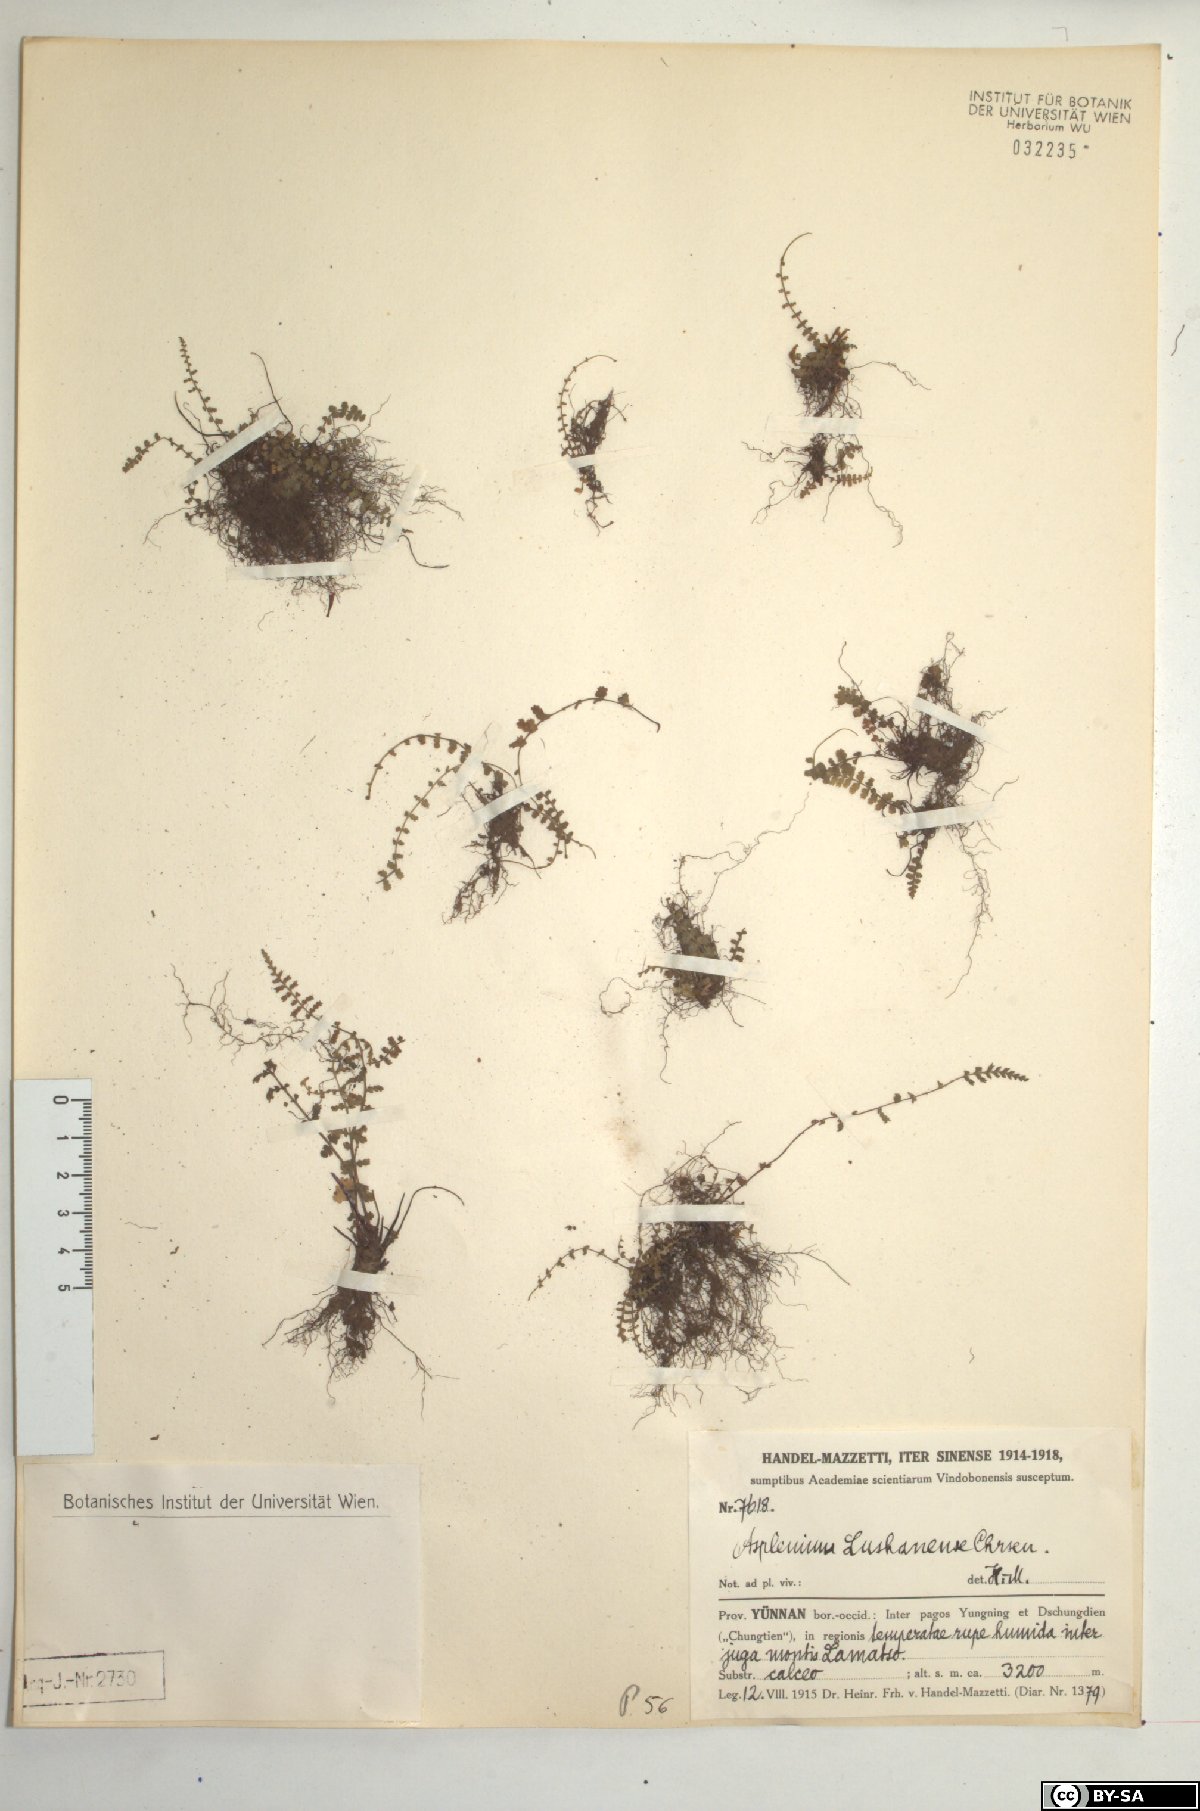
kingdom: Plantae
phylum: Tracheophyta
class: Polypodiopsida
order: Polypodiales
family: Aspleniaceae
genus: Asplenium
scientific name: Asplenium exiguum
